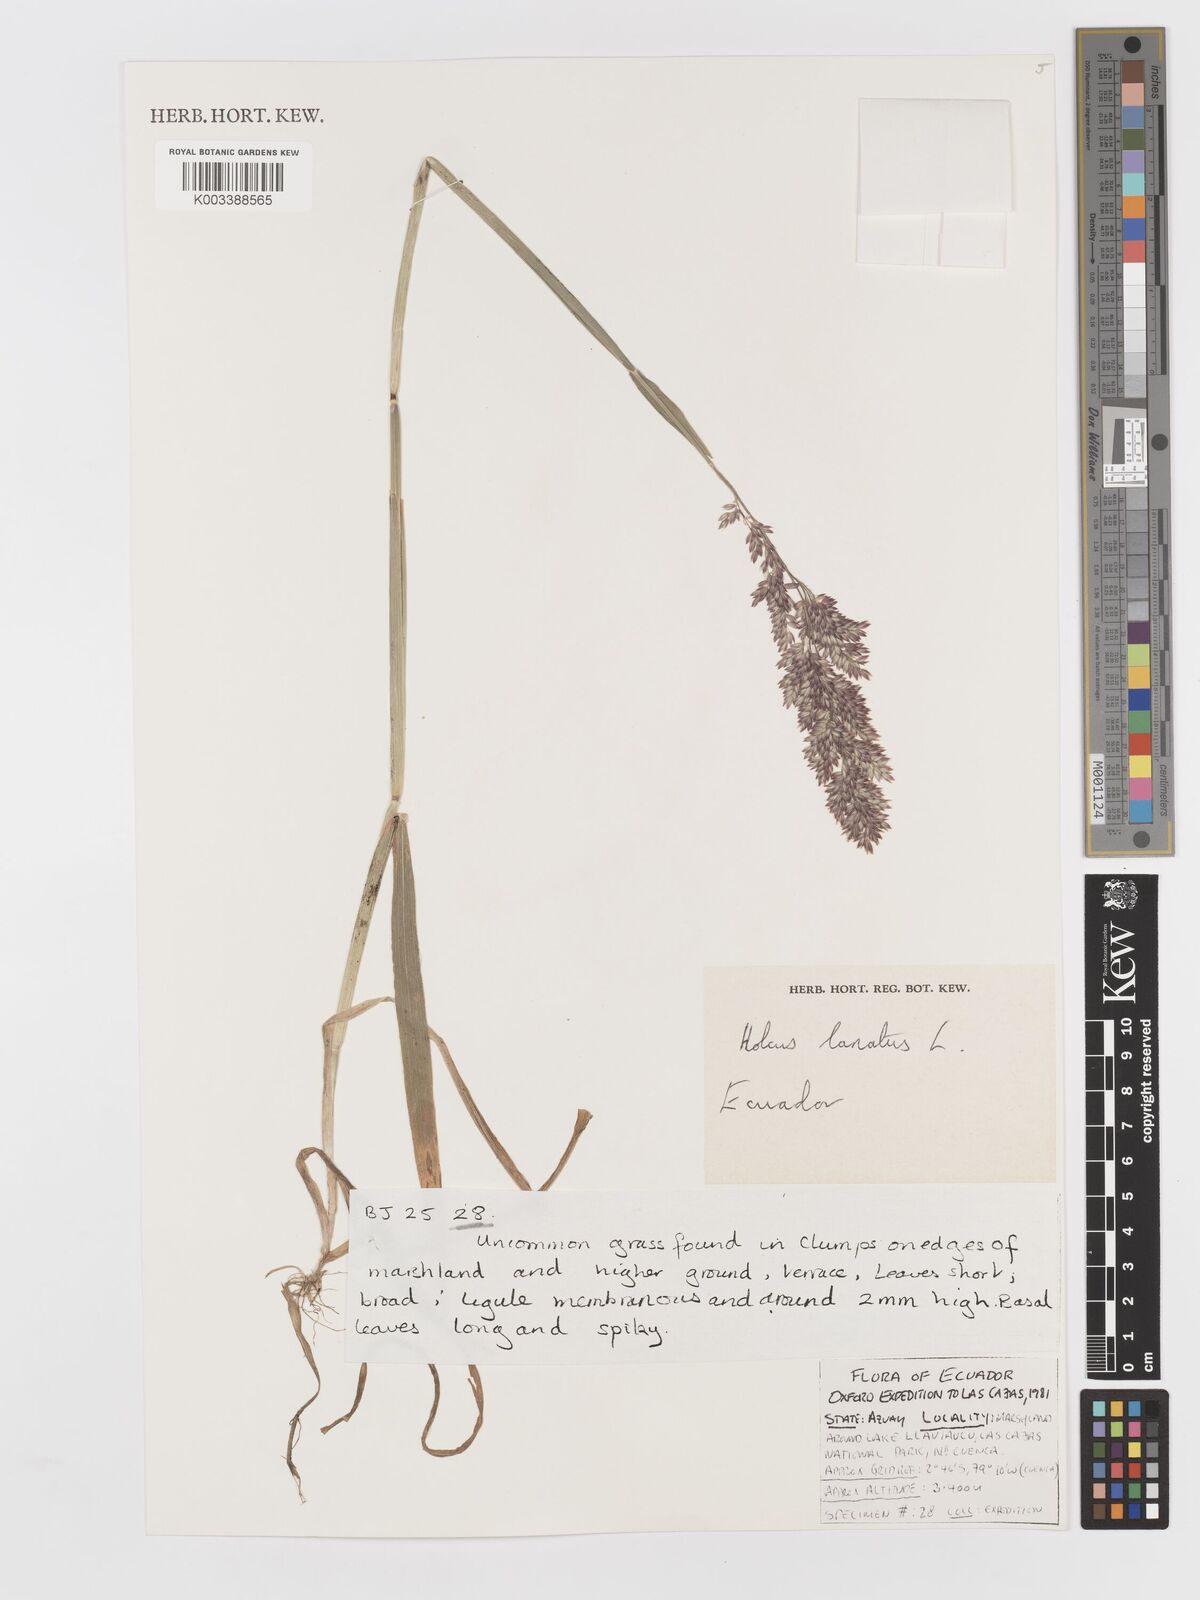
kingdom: Plantae
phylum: Tracheophyta
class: Liliopsida
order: Poales
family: Poaceae
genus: Holcus
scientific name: Holcus lanatus
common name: Yorkshire-fog
